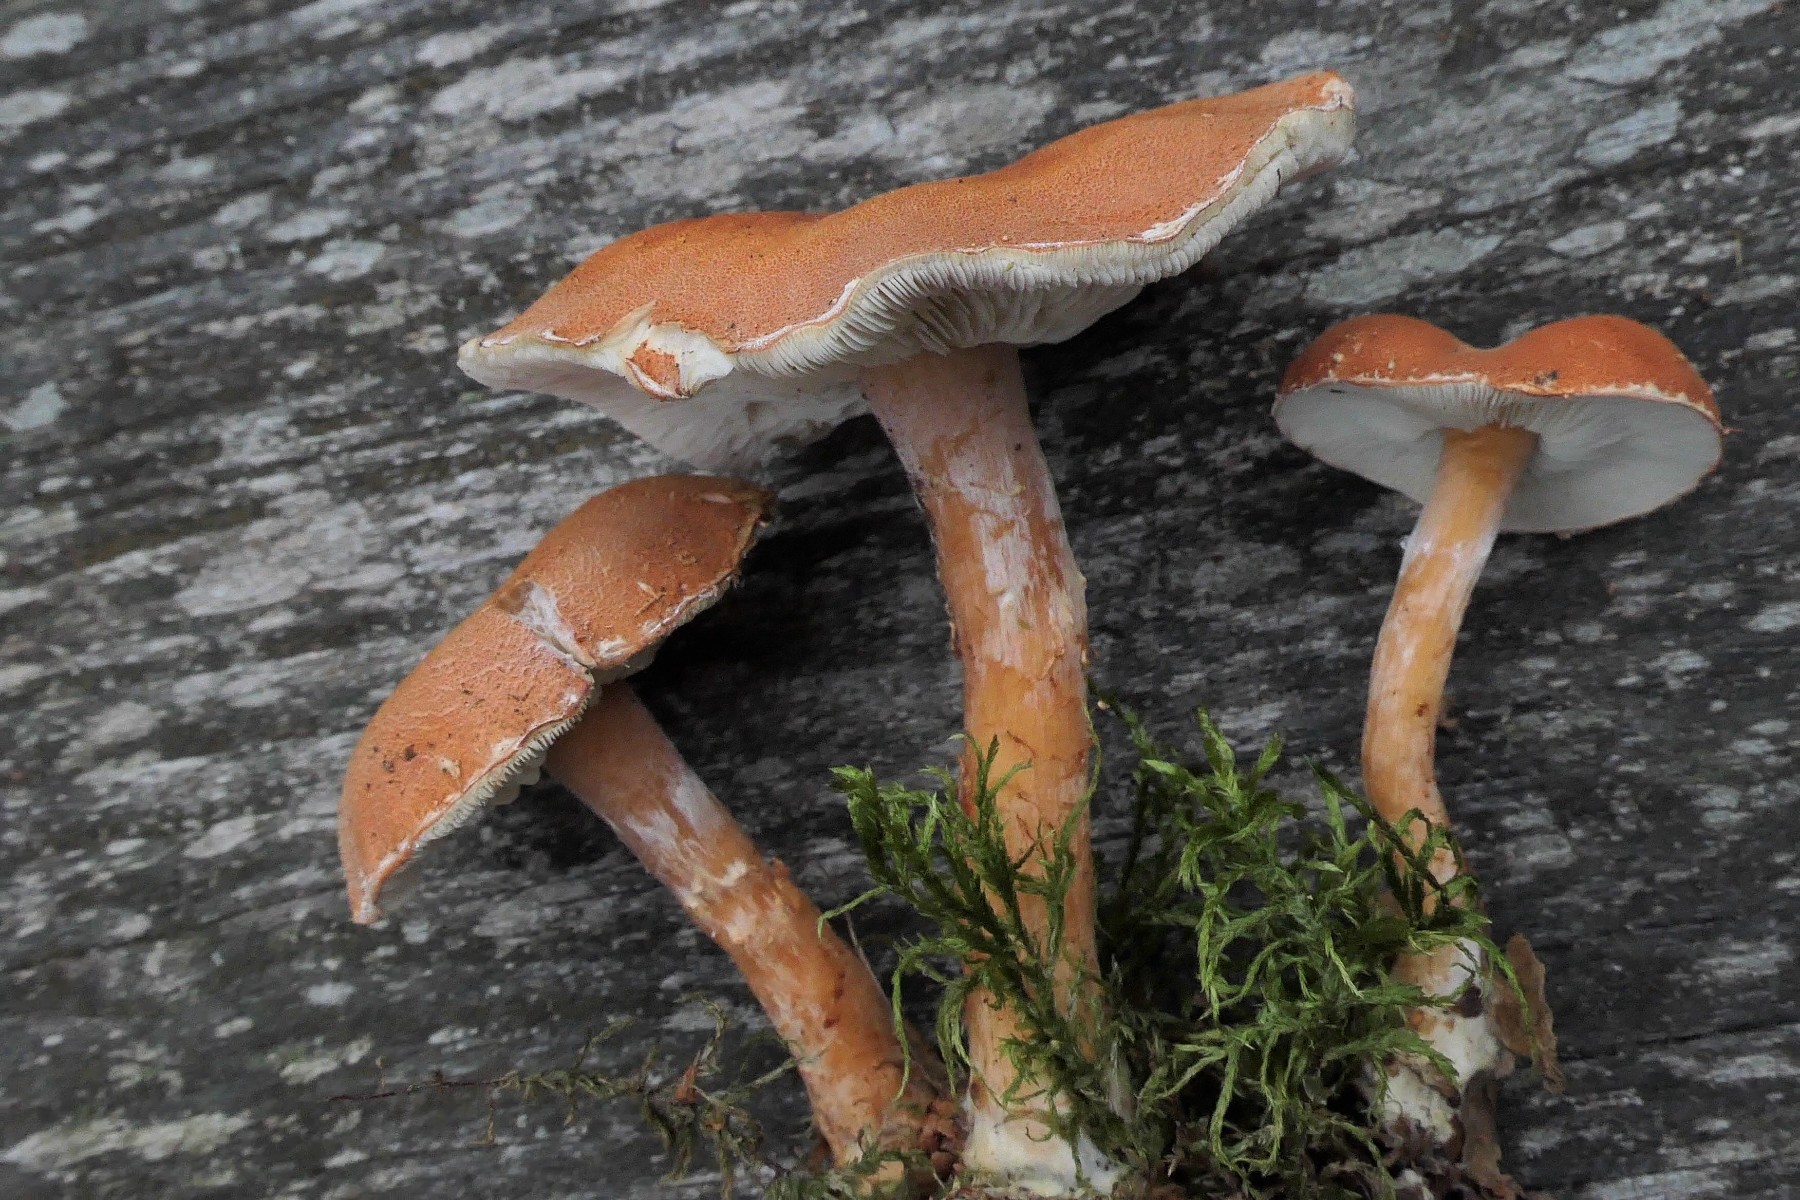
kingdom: Fungi
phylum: Basidiomycota
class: Agaricomycetes
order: Agaricales
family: Agaricaceae
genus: Cystodermella
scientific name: Cystodermella cinnabarina
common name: cinnober-grynhat
